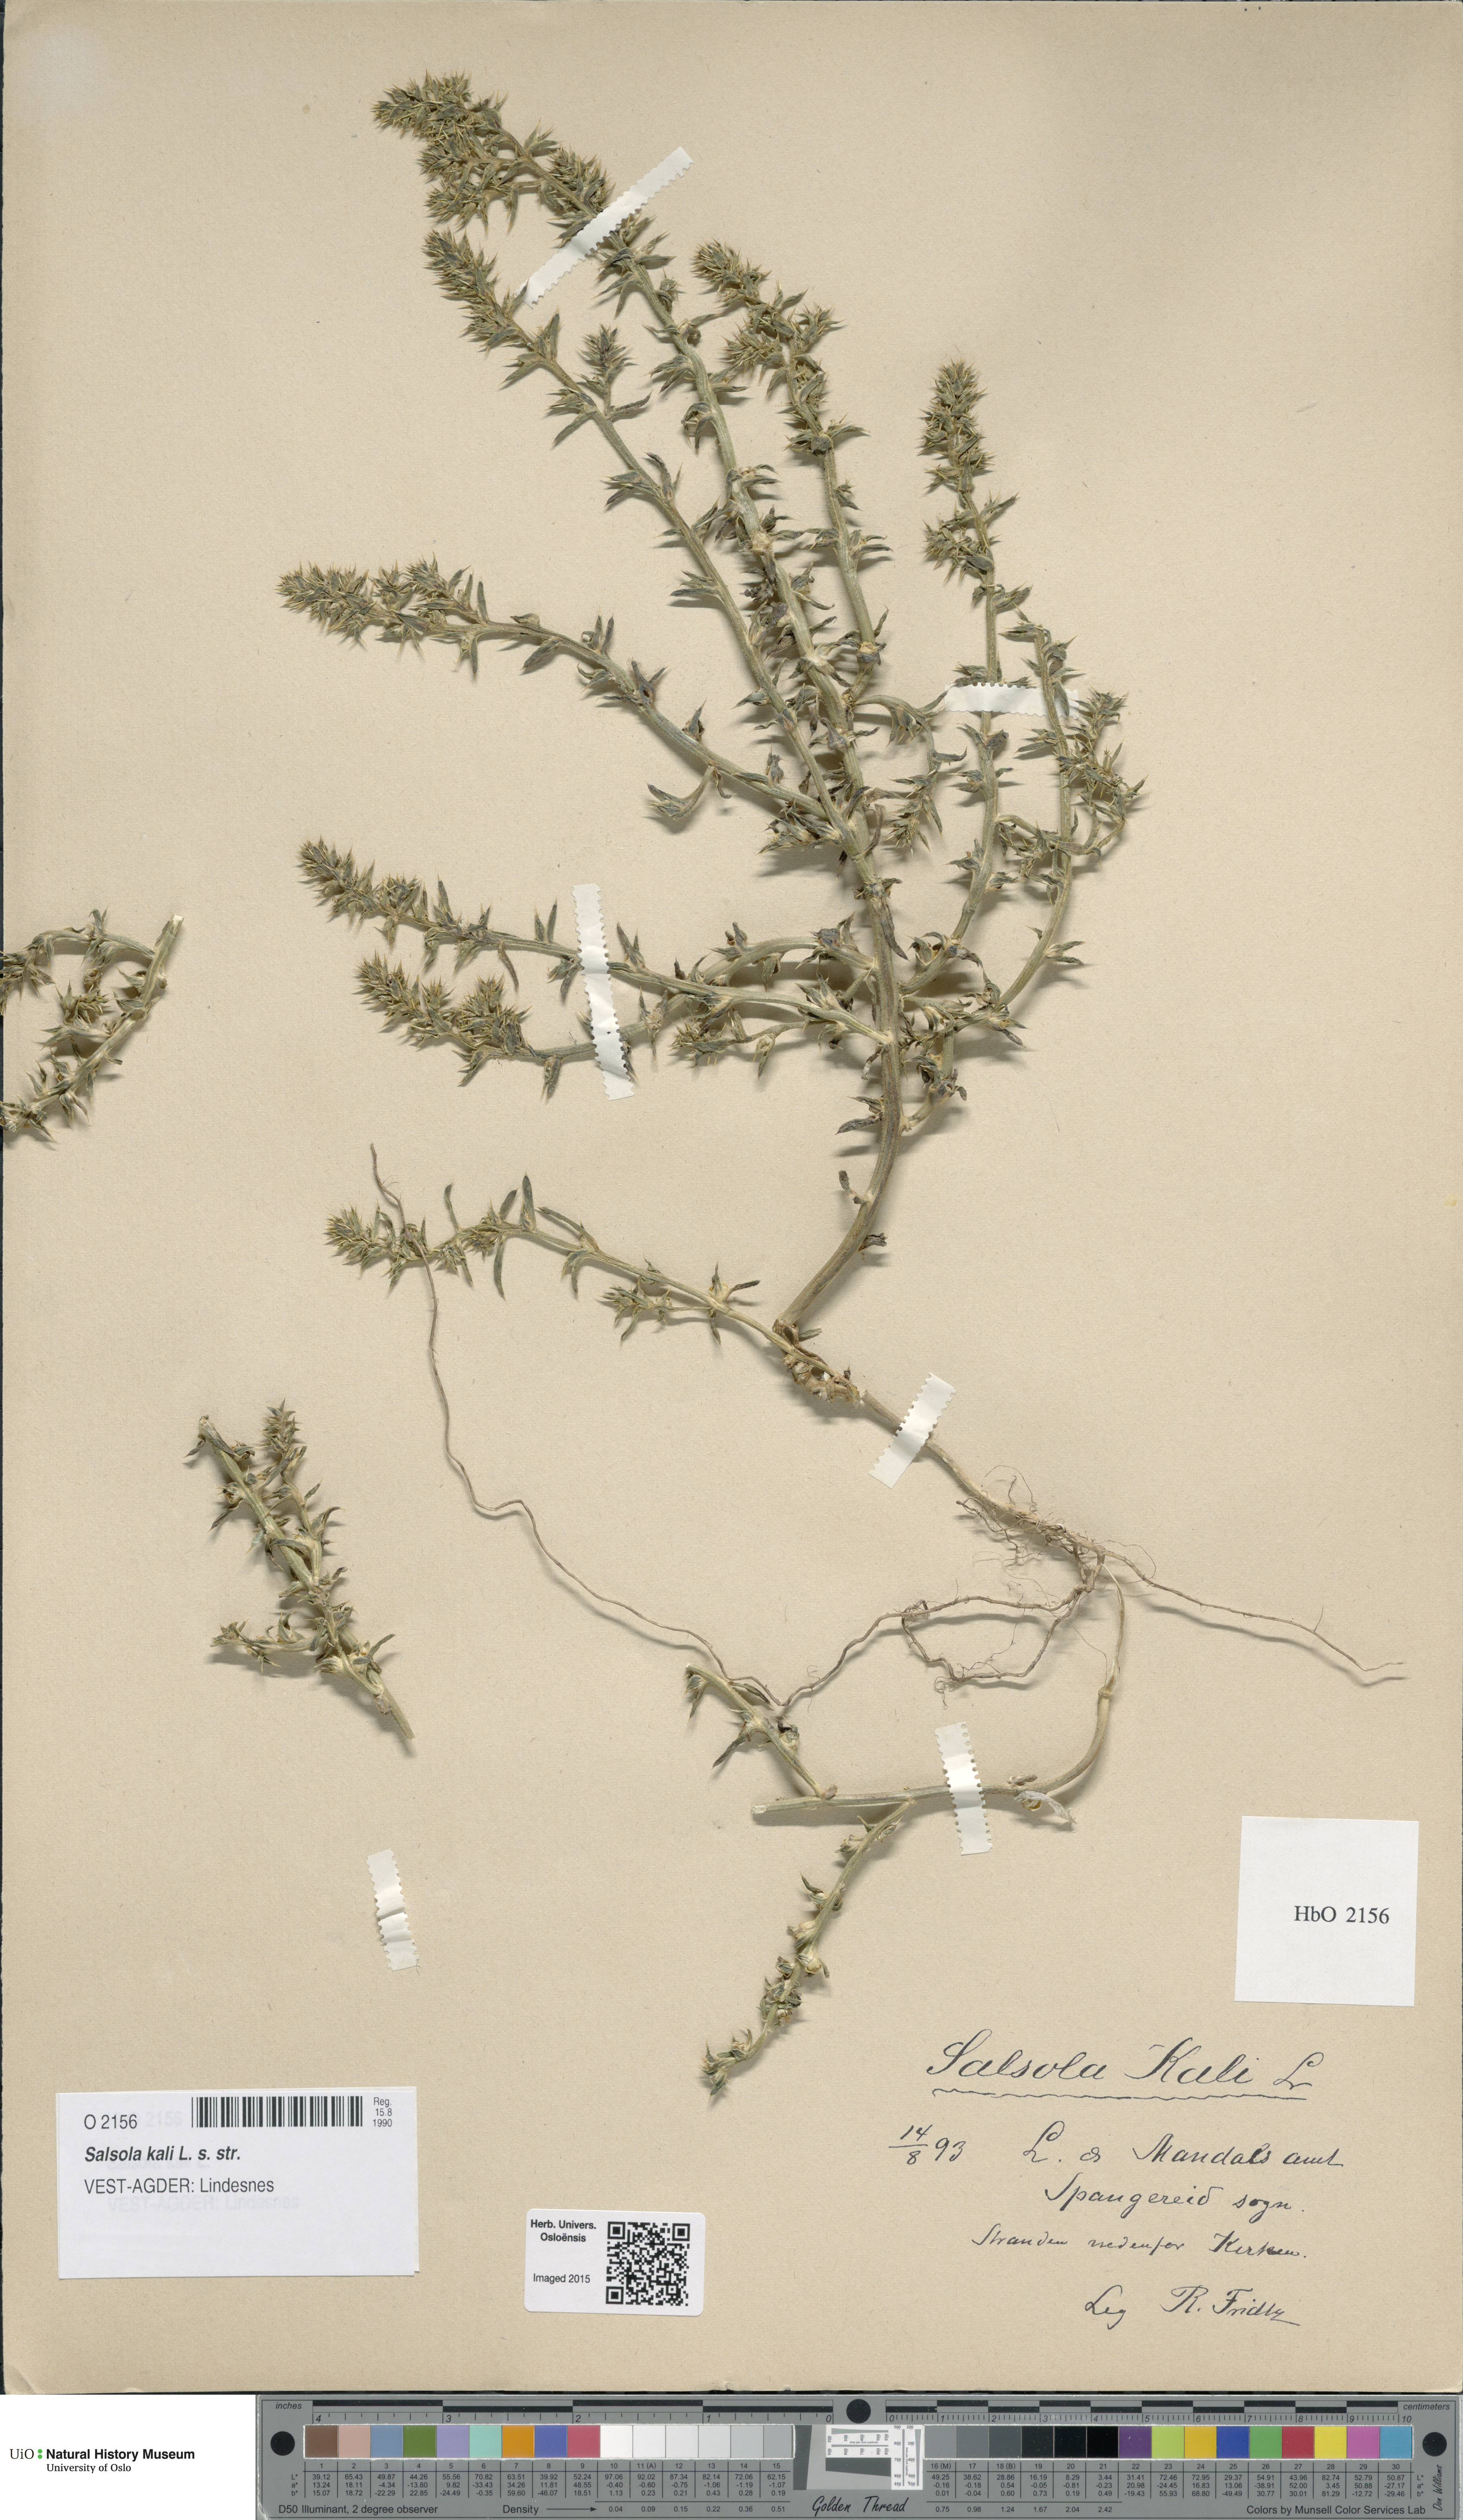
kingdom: Plantae
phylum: Tracheophyta
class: Magnoliopsida
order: Caryophyllales
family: Amaranthaceae
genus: Salsola
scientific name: Salsola kali
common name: Saltwort
